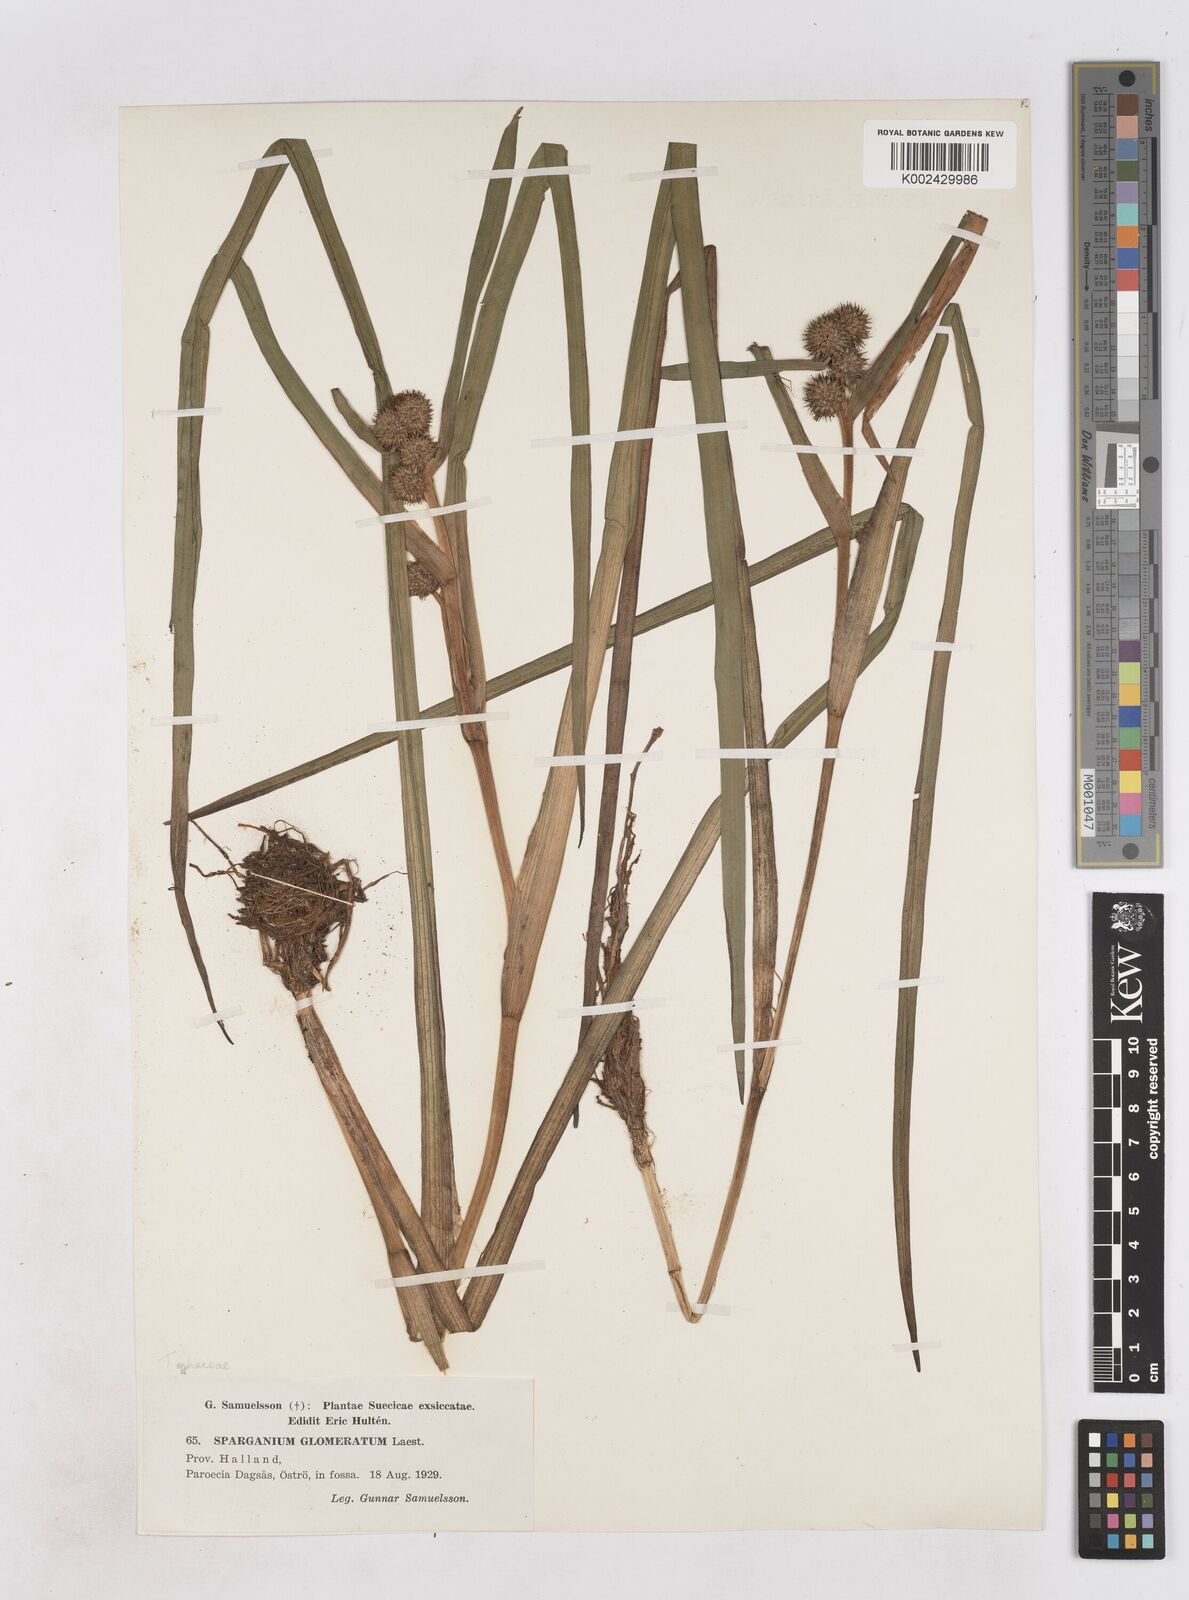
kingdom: Plantae
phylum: Tracheophyta
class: Liliopsida
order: Poales
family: Typhaceae
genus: Sparganium
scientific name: Sparganium angustifolium
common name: Floating bur-reed
